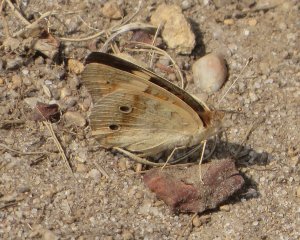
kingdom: Animalia
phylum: Arthropoda
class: Insecta
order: Lepidoptera
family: Nymphalidae
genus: Junonia
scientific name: Junonia coenia
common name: Common Buckeye
